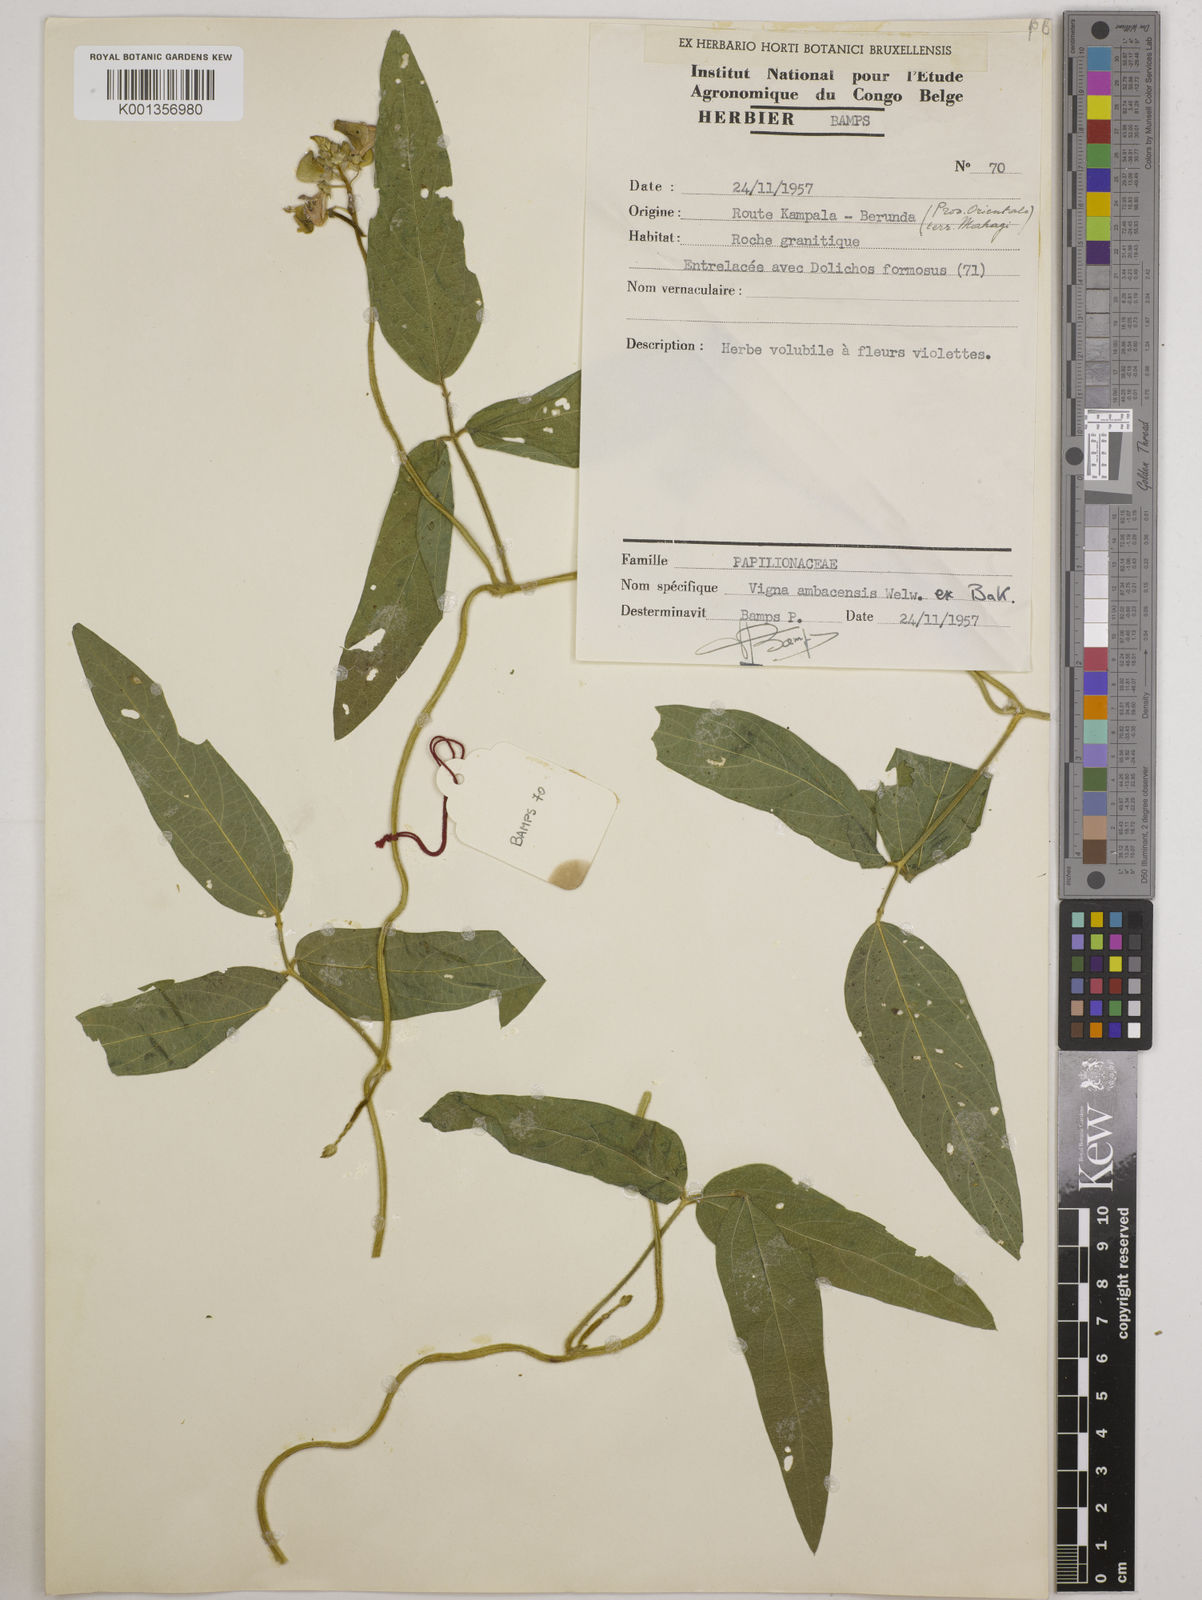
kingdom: Plantae
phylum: Tracheophyta
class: Magnoliopsida
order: Fabales
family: Fabaceae
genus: Vigna
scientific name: Vigna ambacensis
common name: Tsarkiyan zomo
